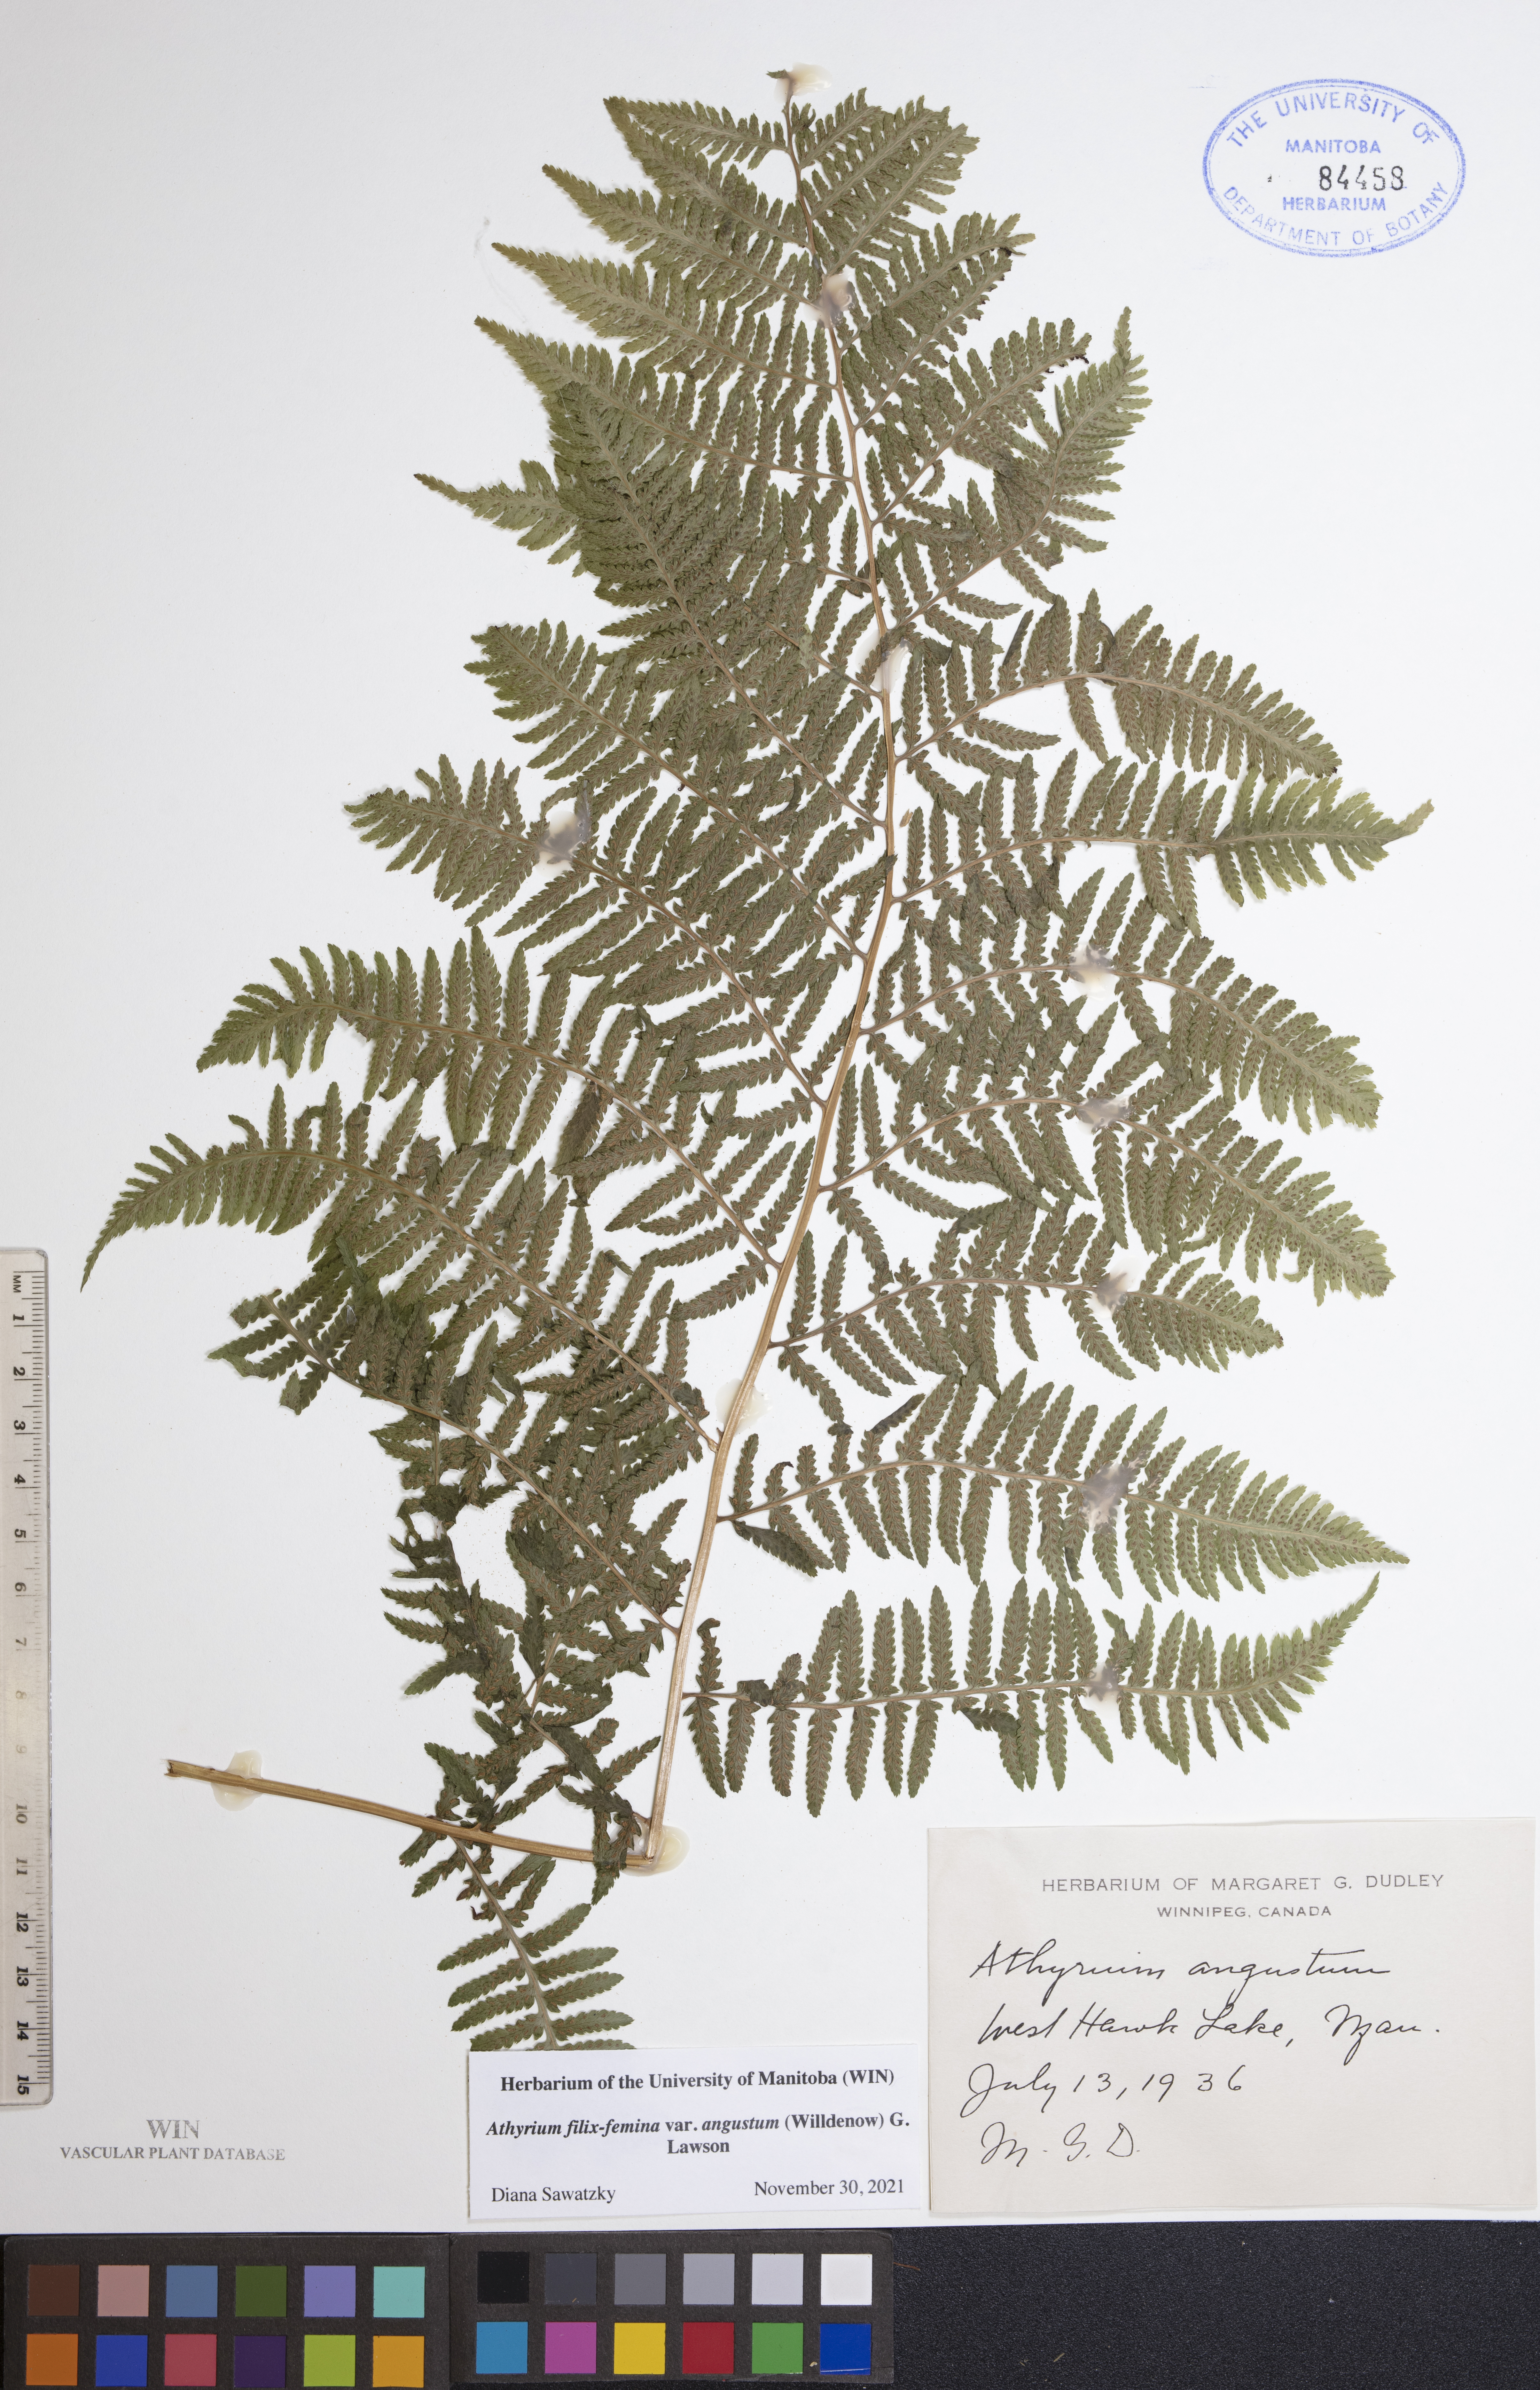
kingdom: Plantae
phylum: Tracheophyta
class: Polypodiopsida
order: Polypodiales
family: Athyriaceae
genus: Athyrium
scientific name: Athyrium angustum
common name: Northern lady fern
